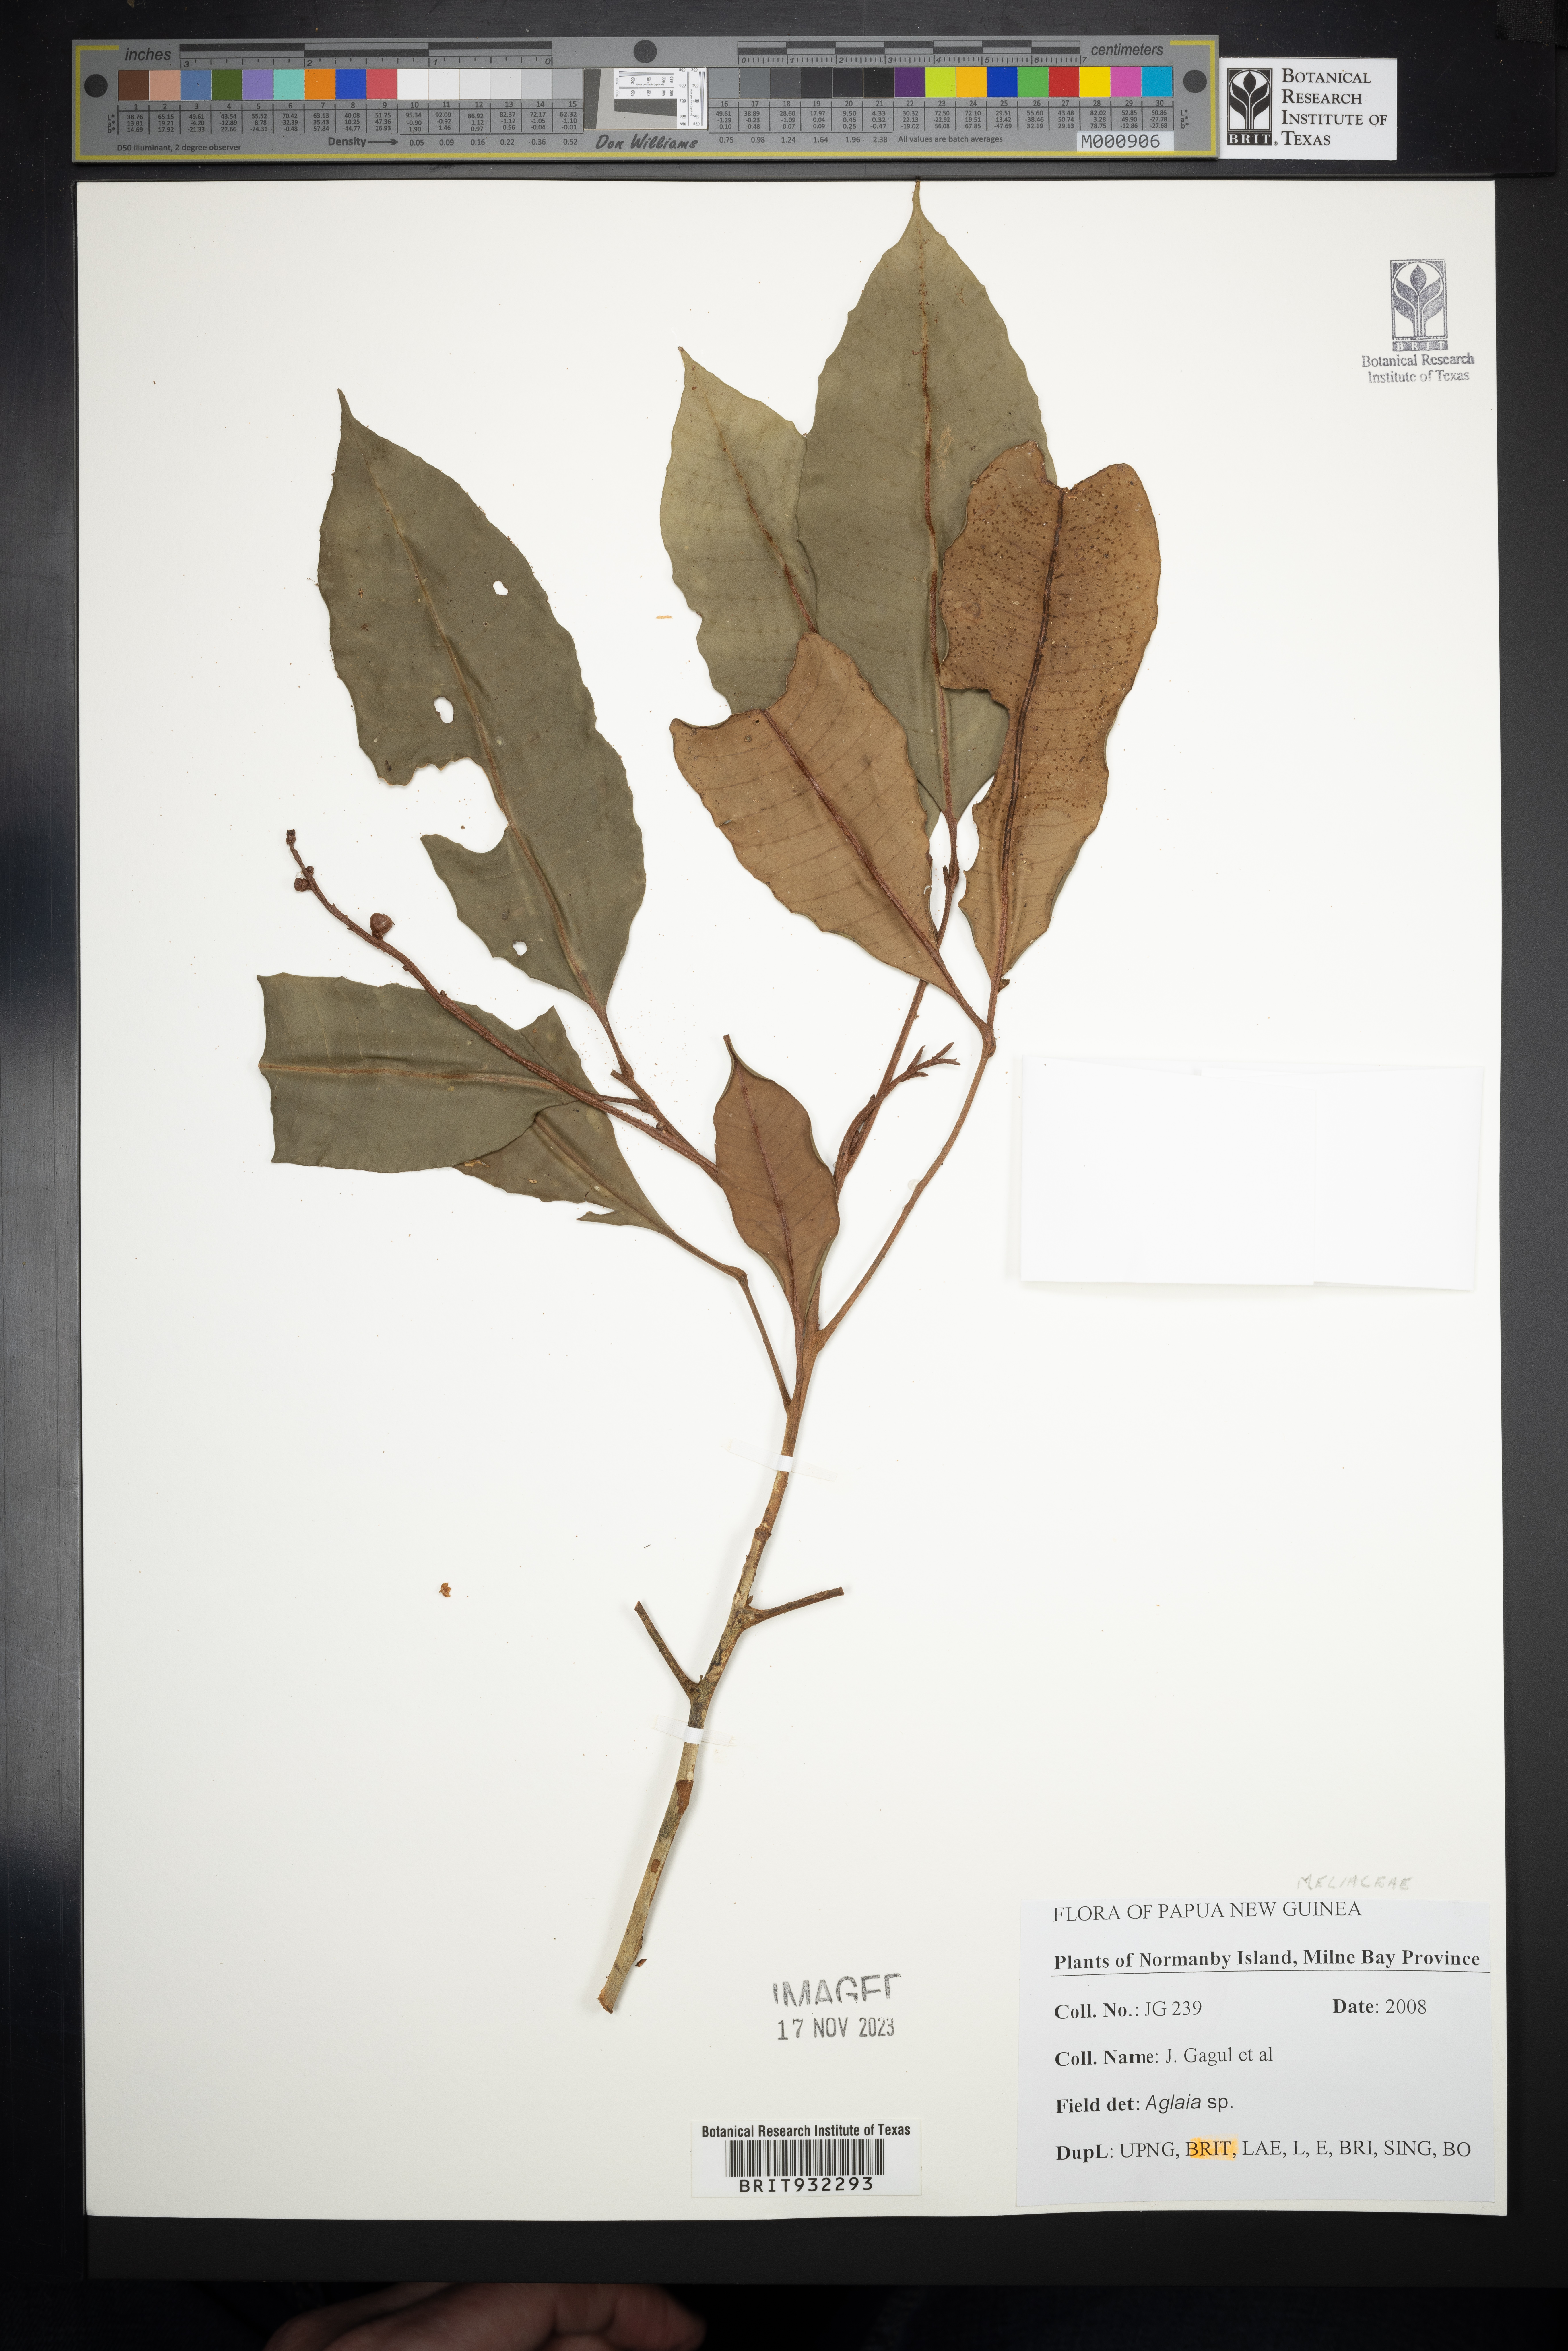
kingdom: Plantae
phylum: Tracheophyta
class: Magnoliopsida
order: Sapindales
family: Meliaceae
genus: Aglaia
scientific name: Aglaia
